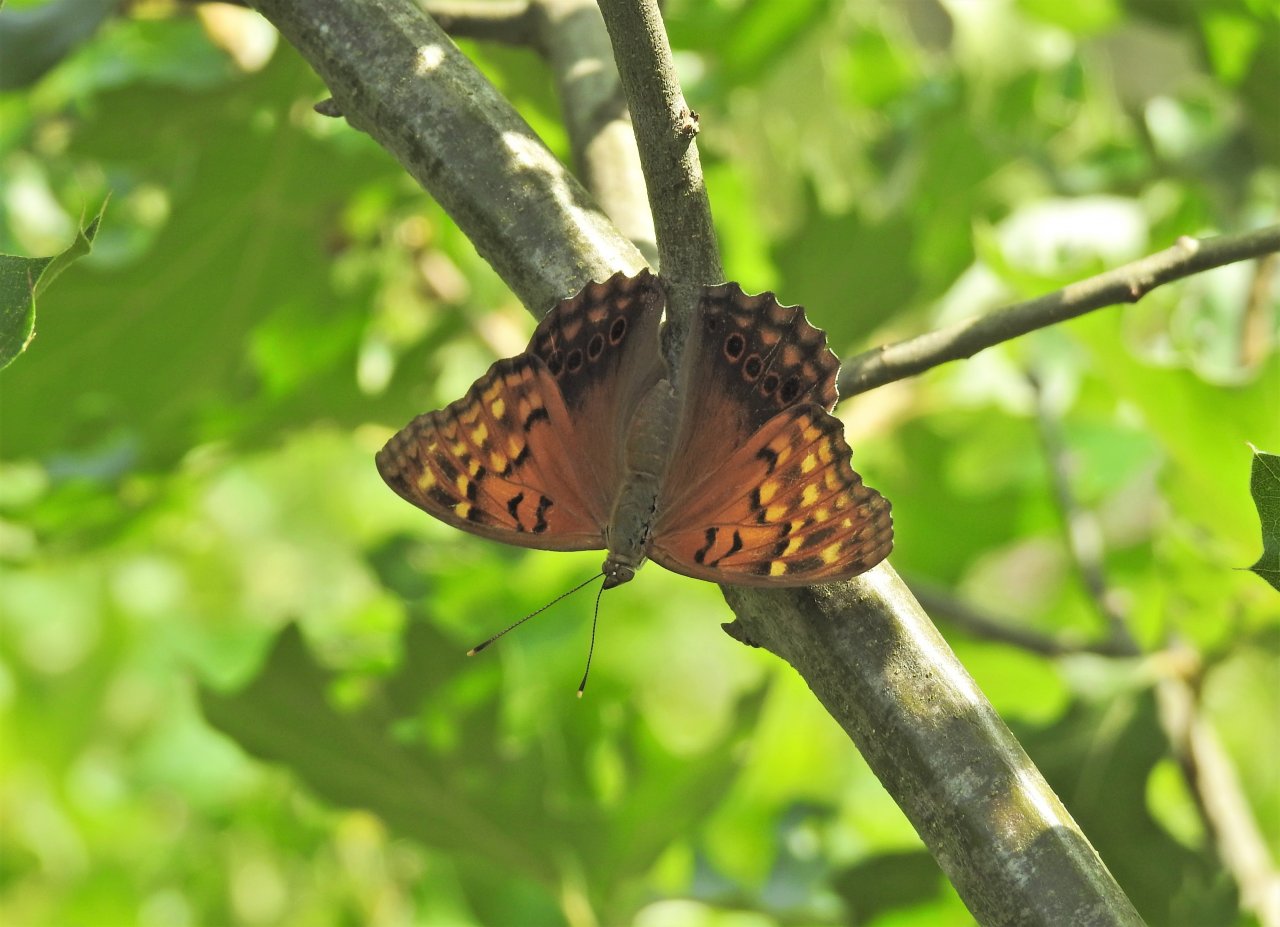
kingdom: Animalia
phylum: Arthropoda
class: Insecta
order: Lepidoptera
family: Nymphalidae
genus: Asterocampa
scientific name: Asterocampa clyton
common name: Tawny Emperor
